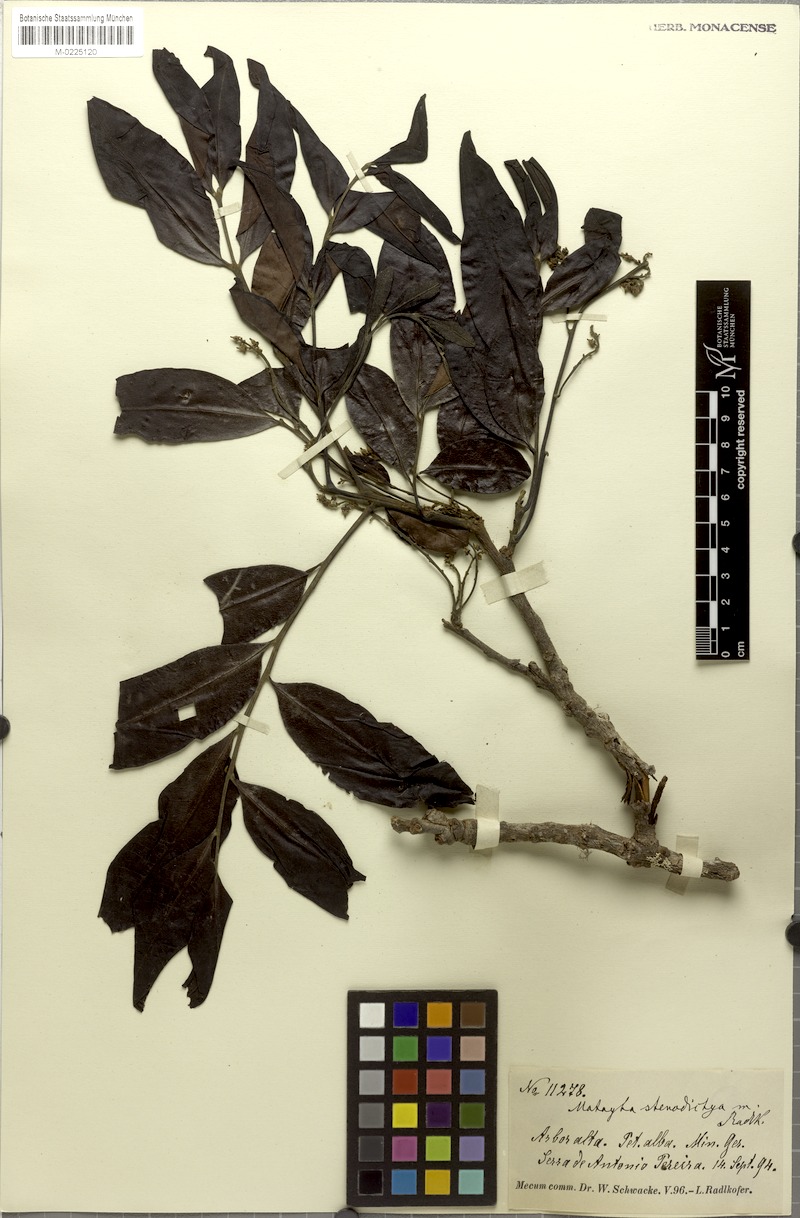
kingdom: Plantae
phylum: Tracheophyta
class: Magnoliopsida
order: Sapindales
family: Sapindaceae
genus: Matayba
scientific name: Matayba stenodictya
